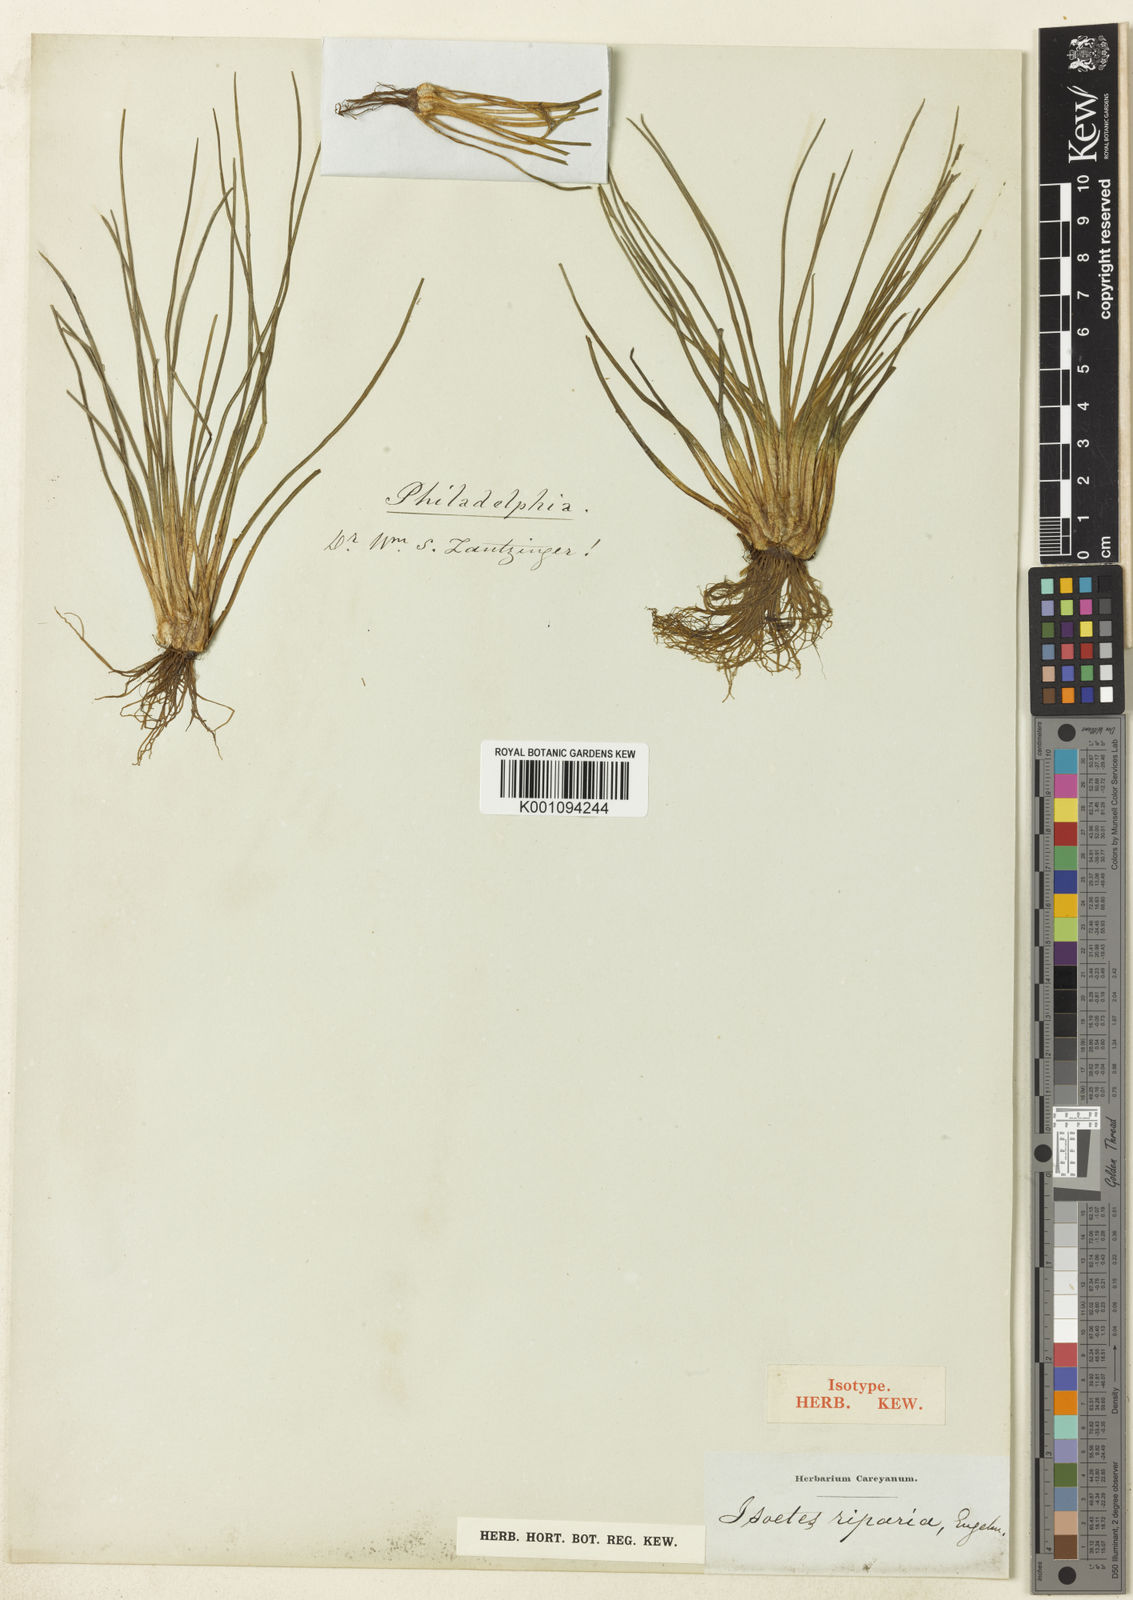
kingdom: Plantae
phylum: Tracheophyta
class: Lycopodiopsida
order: Isoetales
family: Isoetaceae
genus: Isoetes
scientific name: Isoetes
